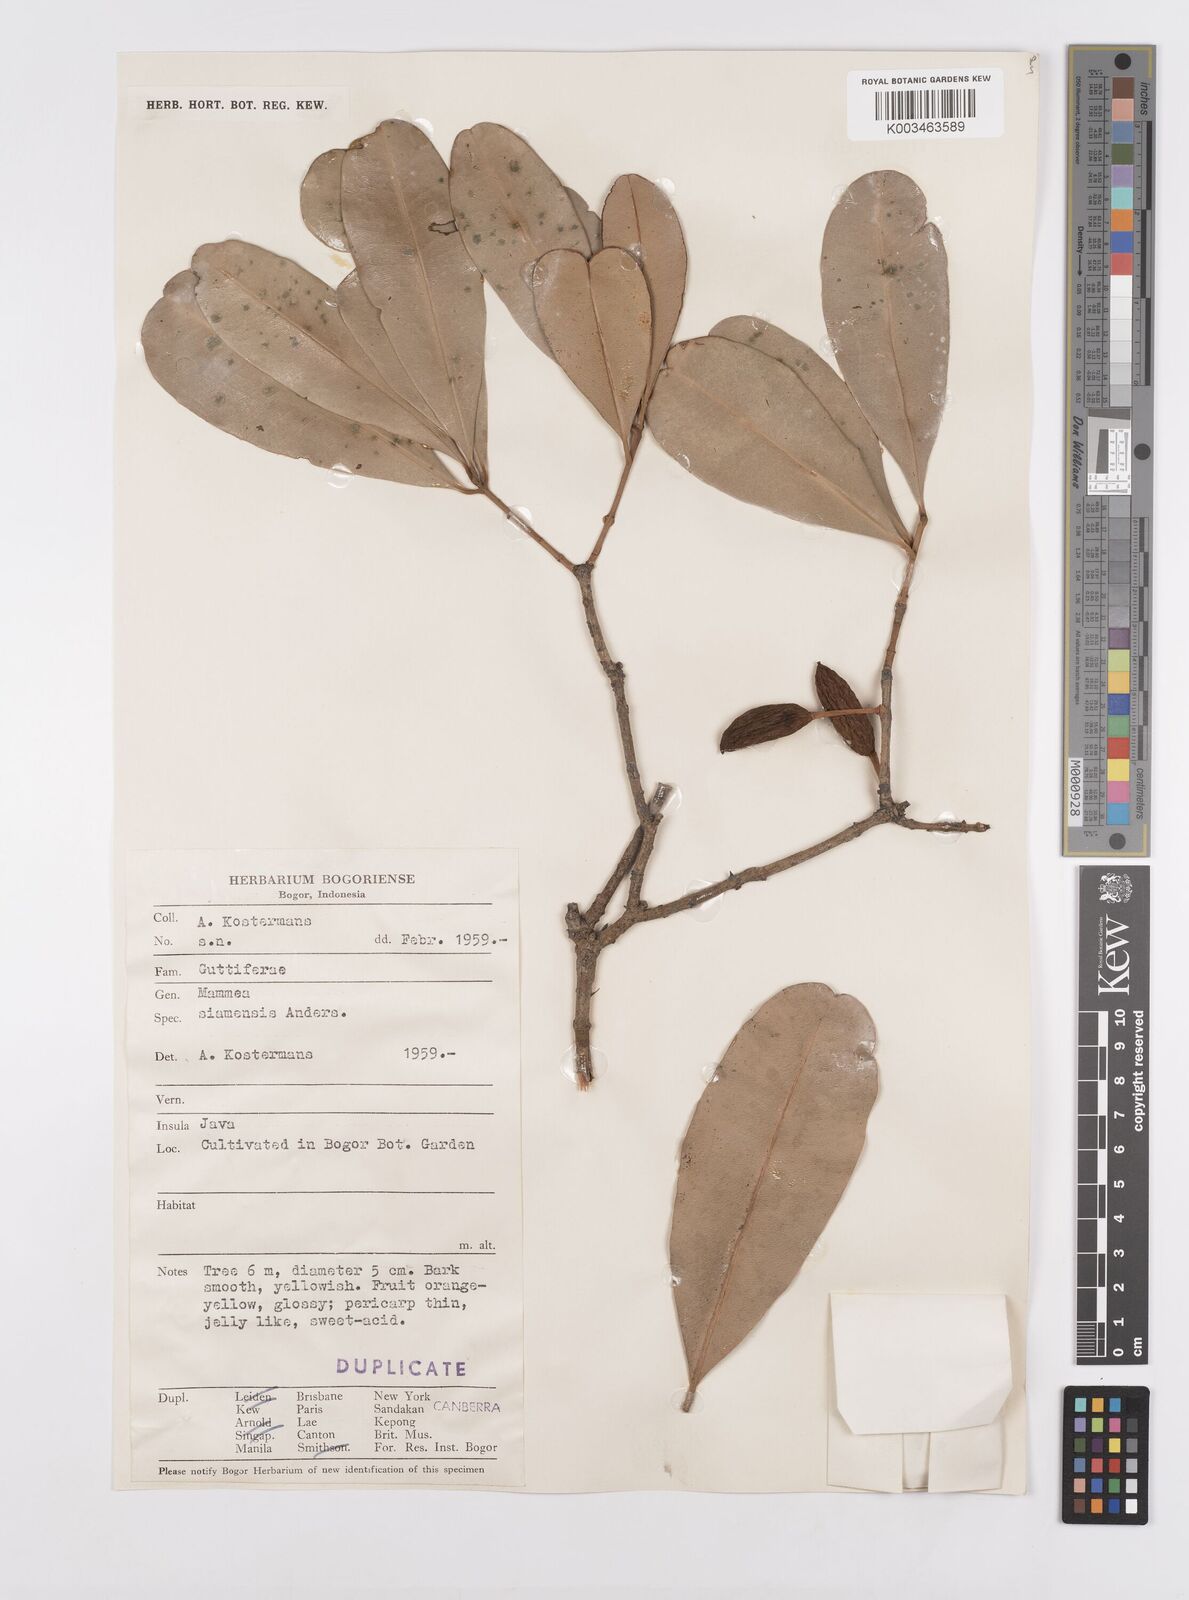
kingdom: Plantae
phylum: Tracheophyta
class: Magnoliopsida
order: Malpighiales
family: Calophyllaceae
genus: Mammea
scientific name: Mammea siamensis
